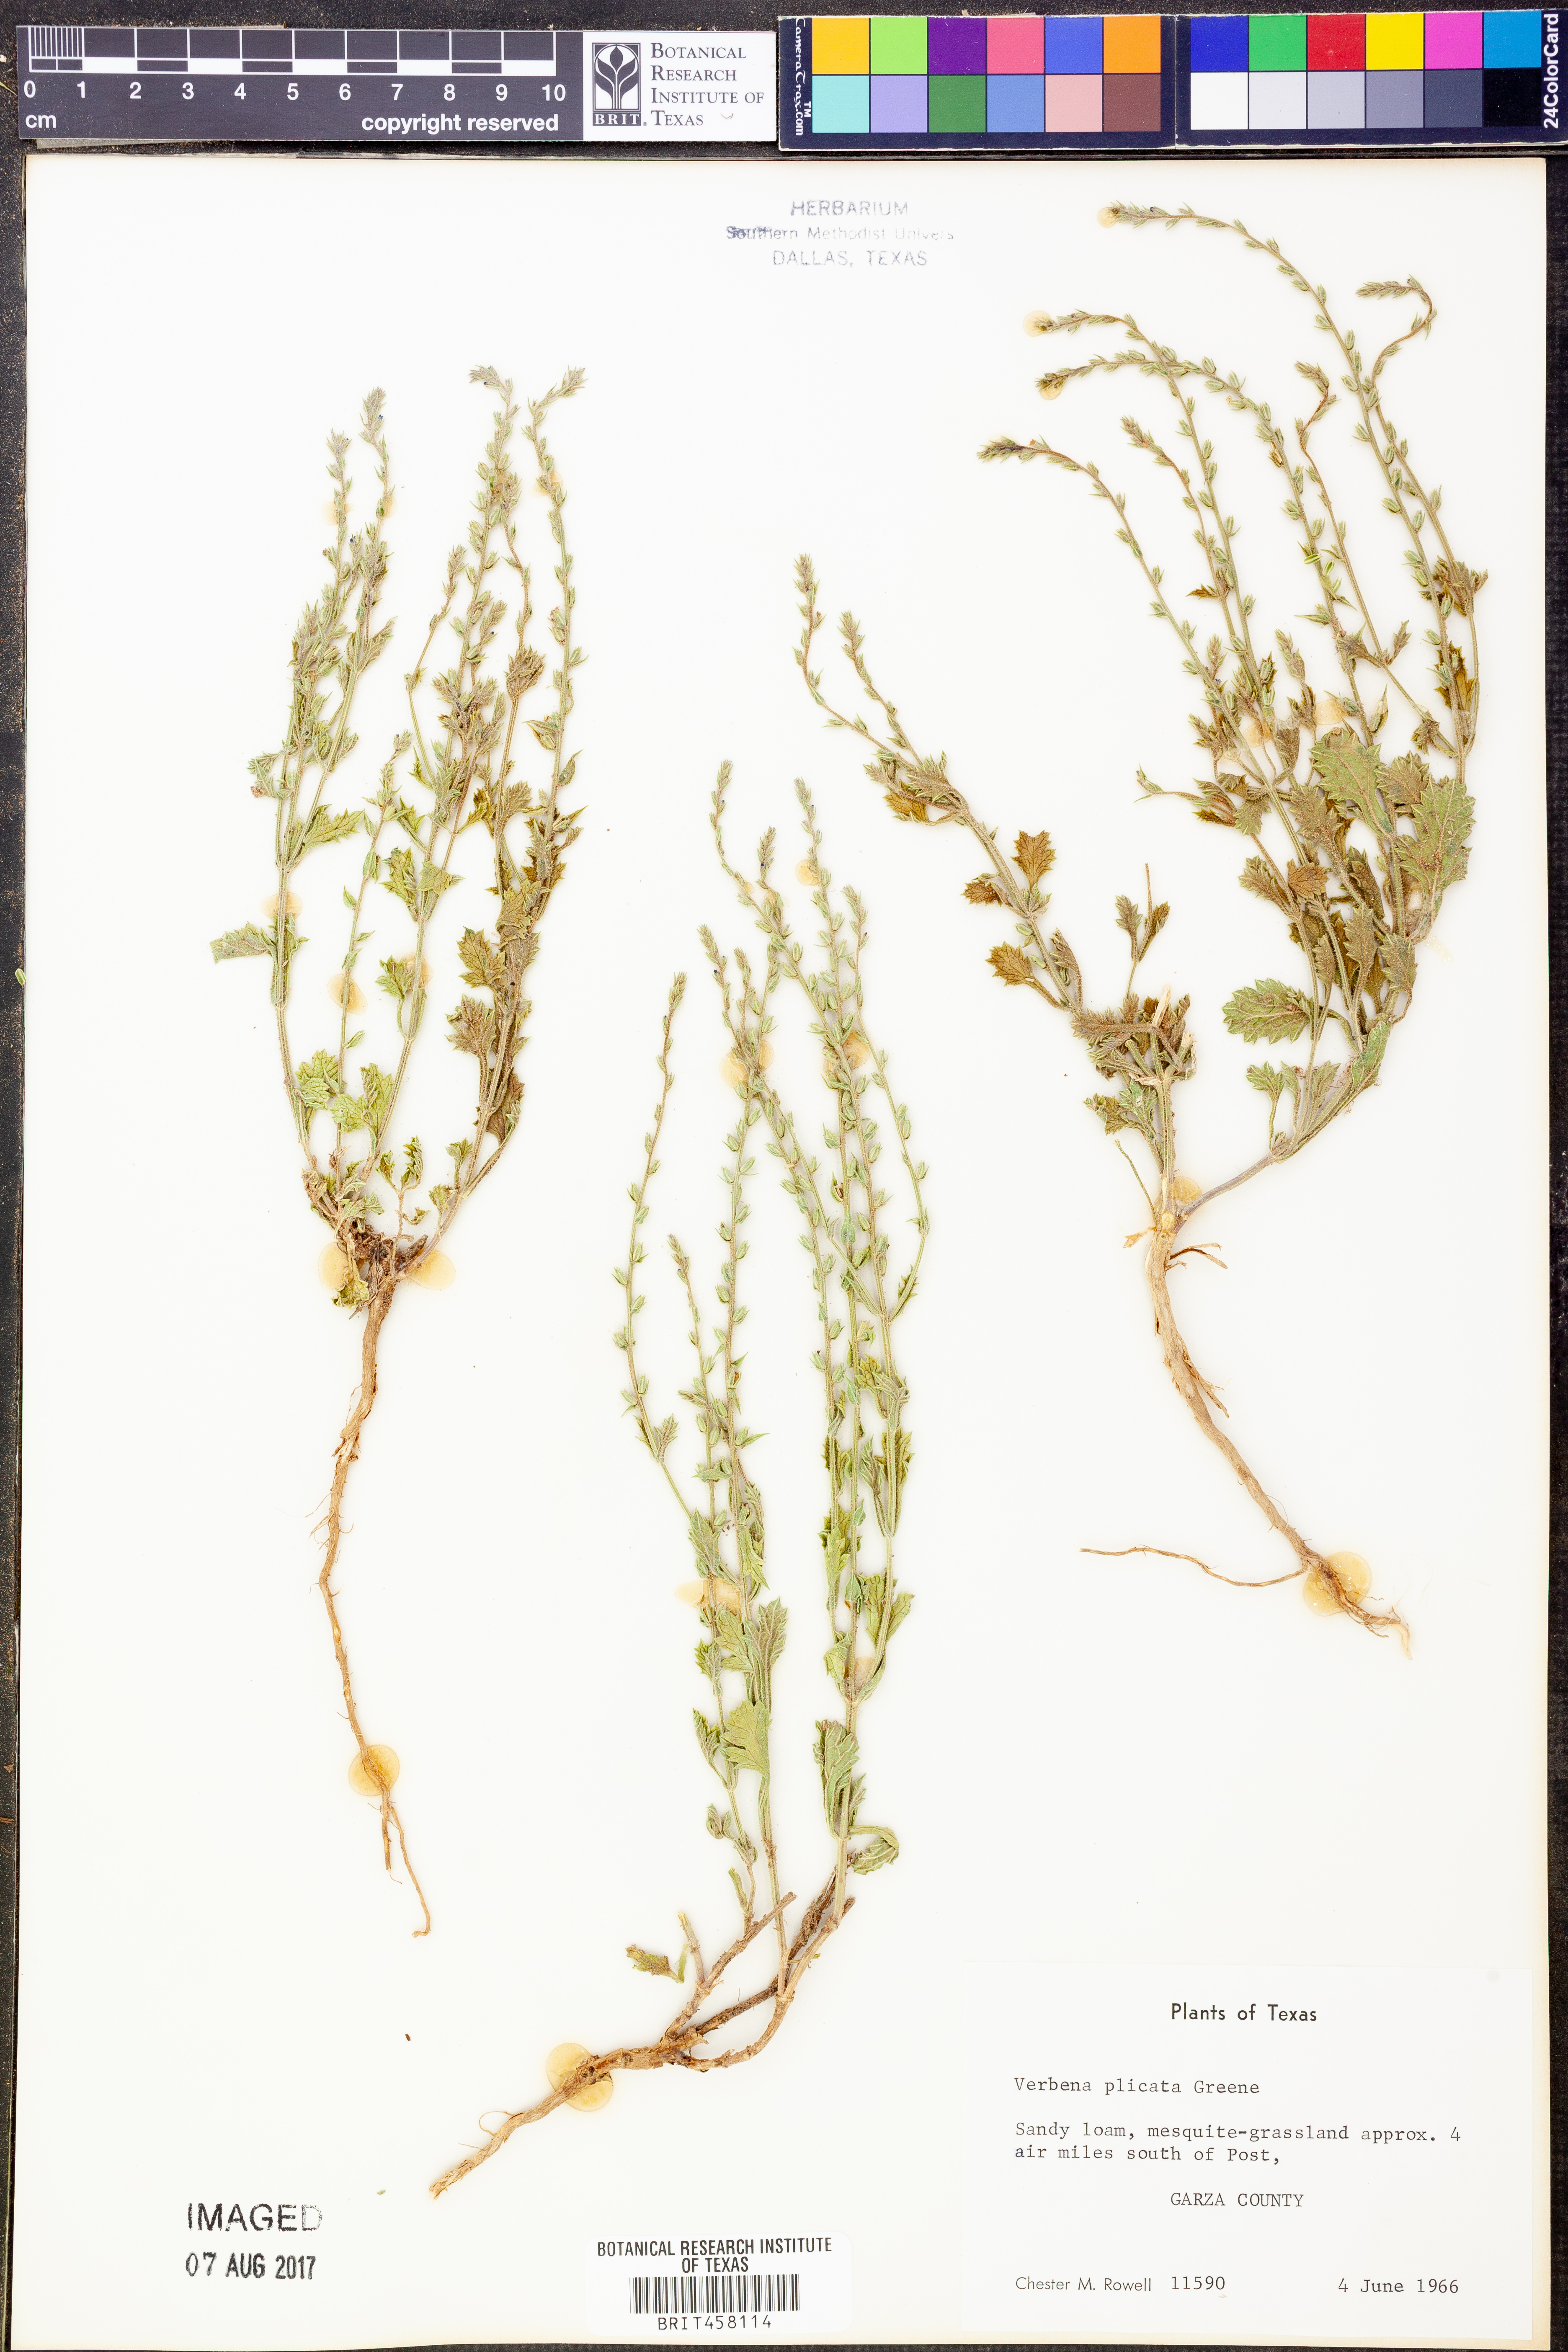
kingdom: Plantae
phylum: Tracheophyta
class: Magnoliopsida
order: Lamiales
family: Verbenaceae
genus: Verbena
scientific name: Verbena plicata
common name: Fan-leaf vervain
